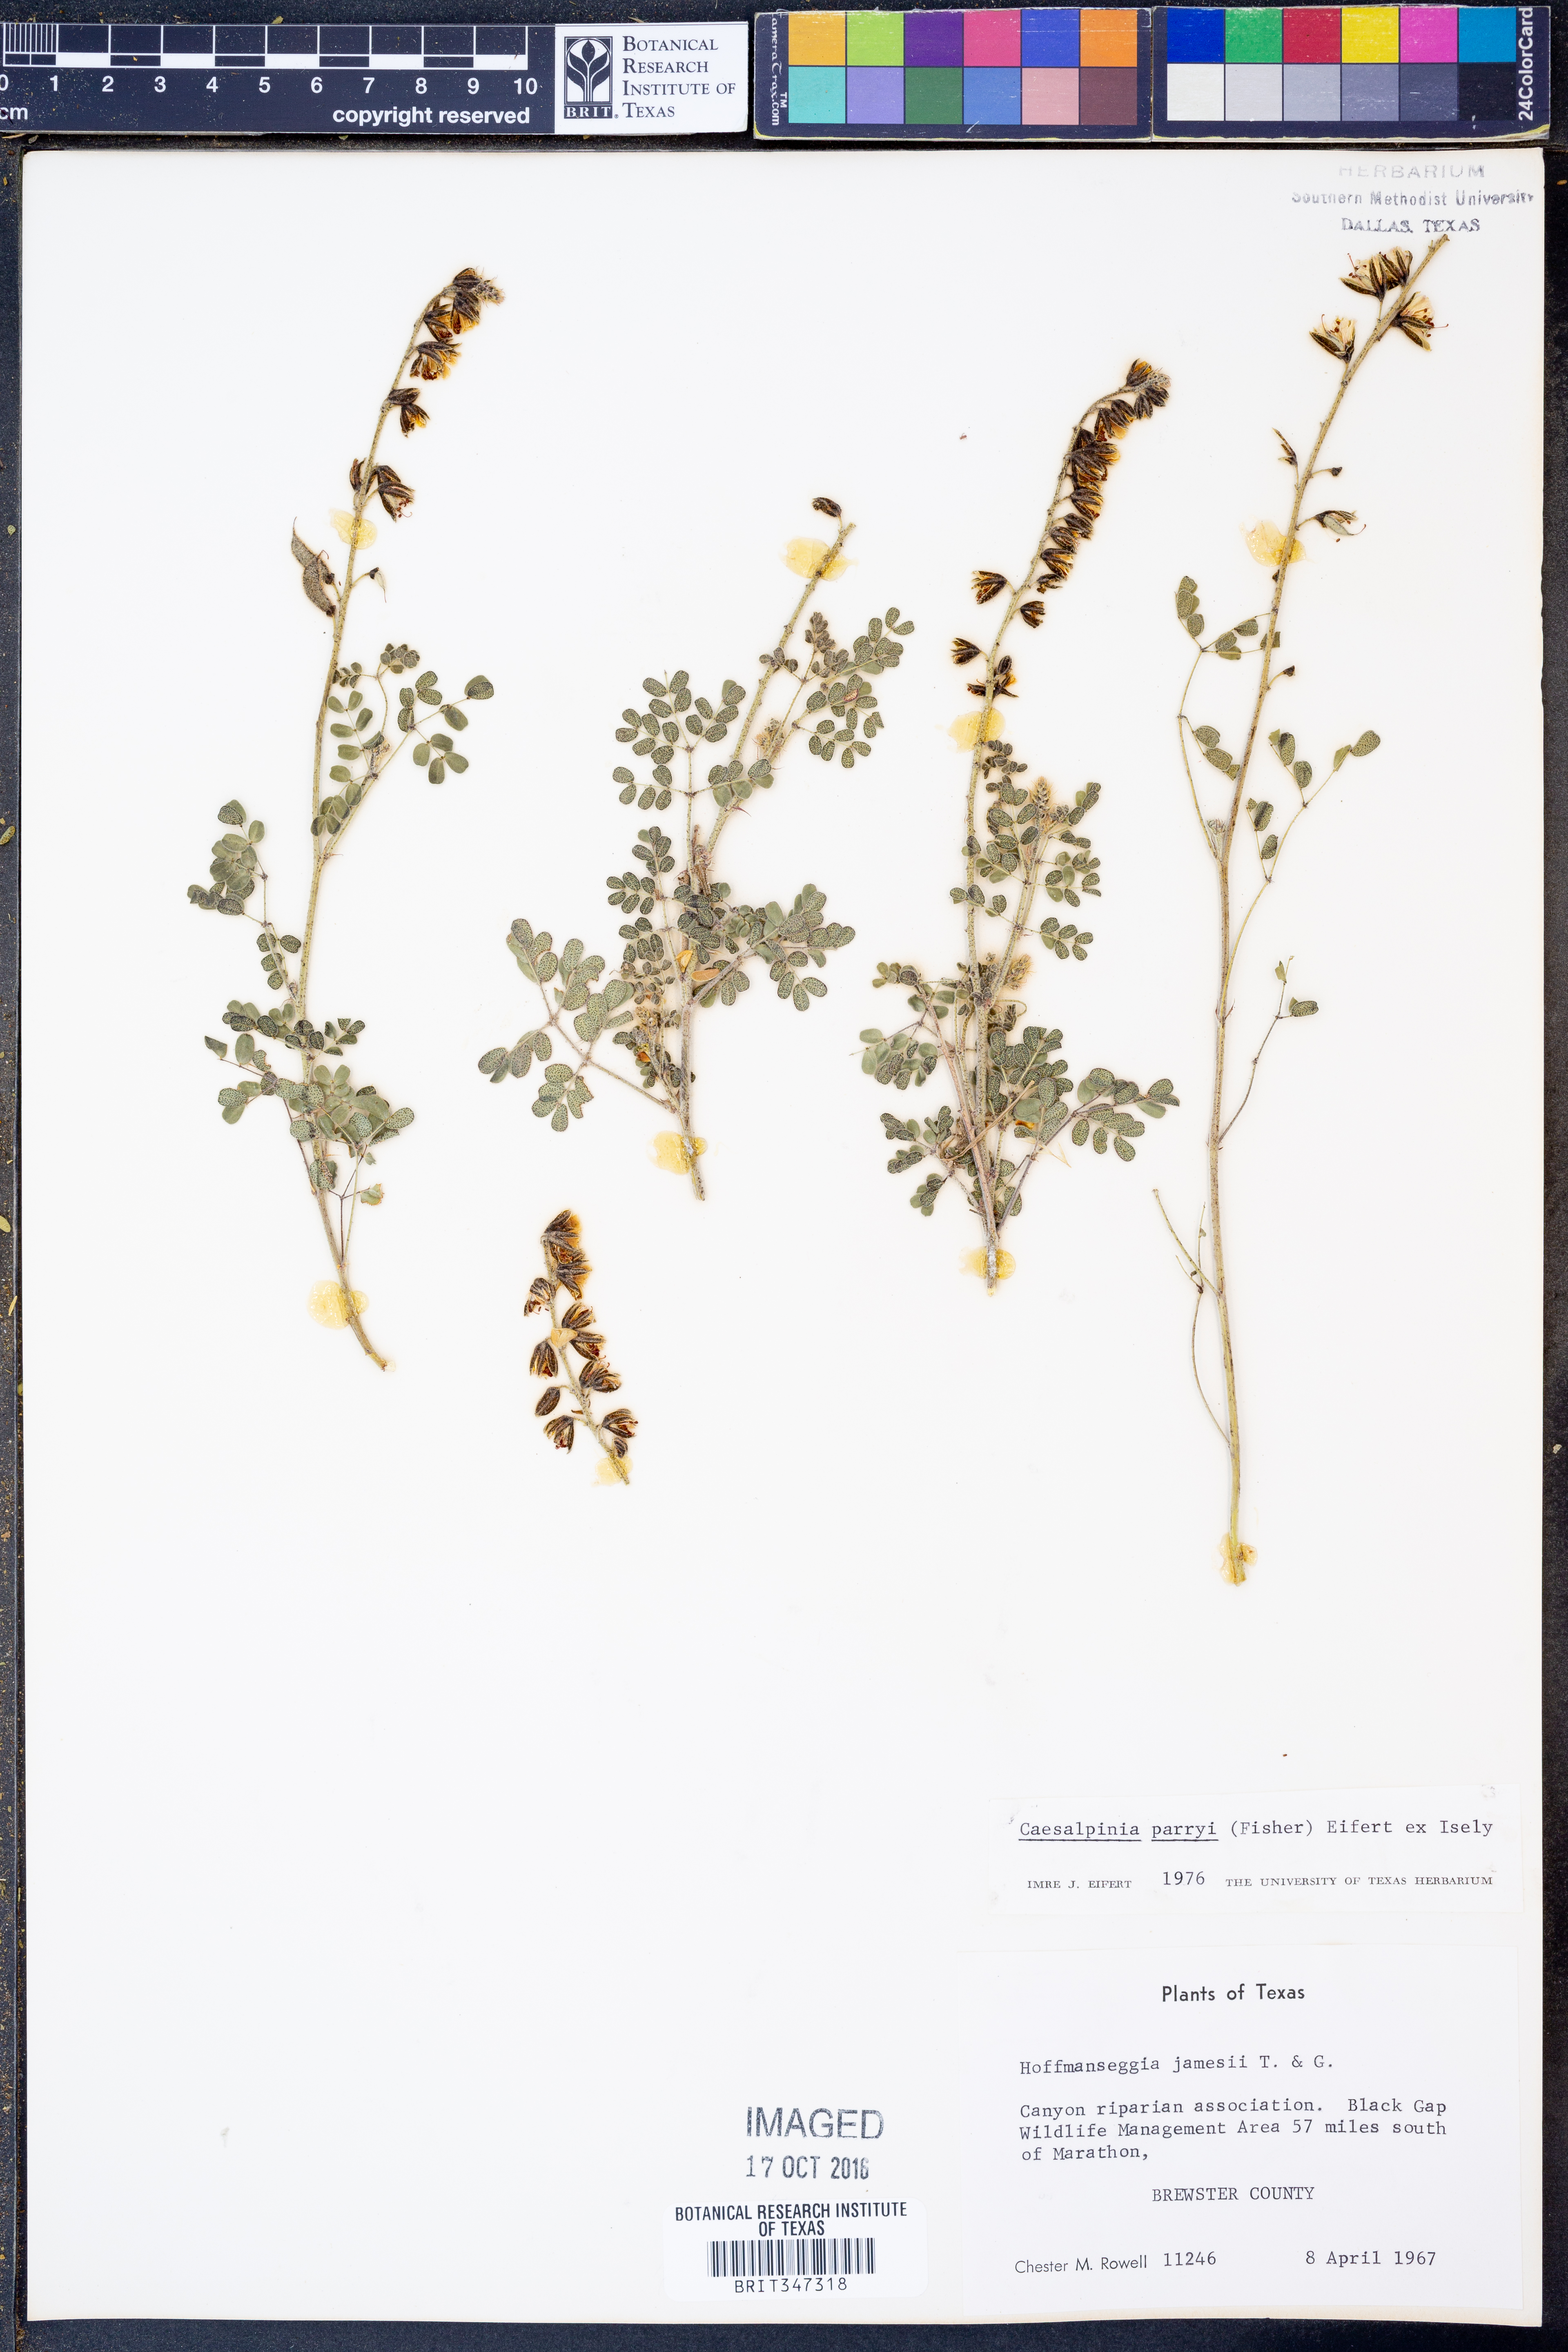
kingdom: Plantae
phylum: Tracheophyta
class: Magnoliopsida
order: Fabales
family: Fabaceae
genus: Pomaria
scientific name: Pomaria melanosticta
